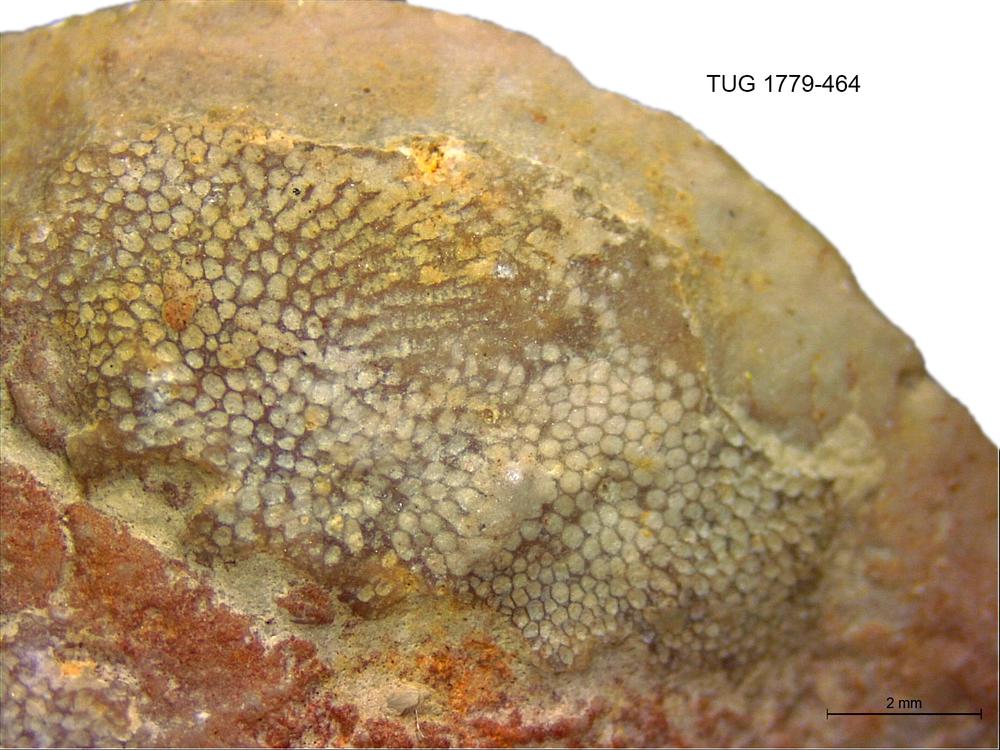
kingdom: Animalia
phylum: Bryozoa
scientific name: Bryozoa
